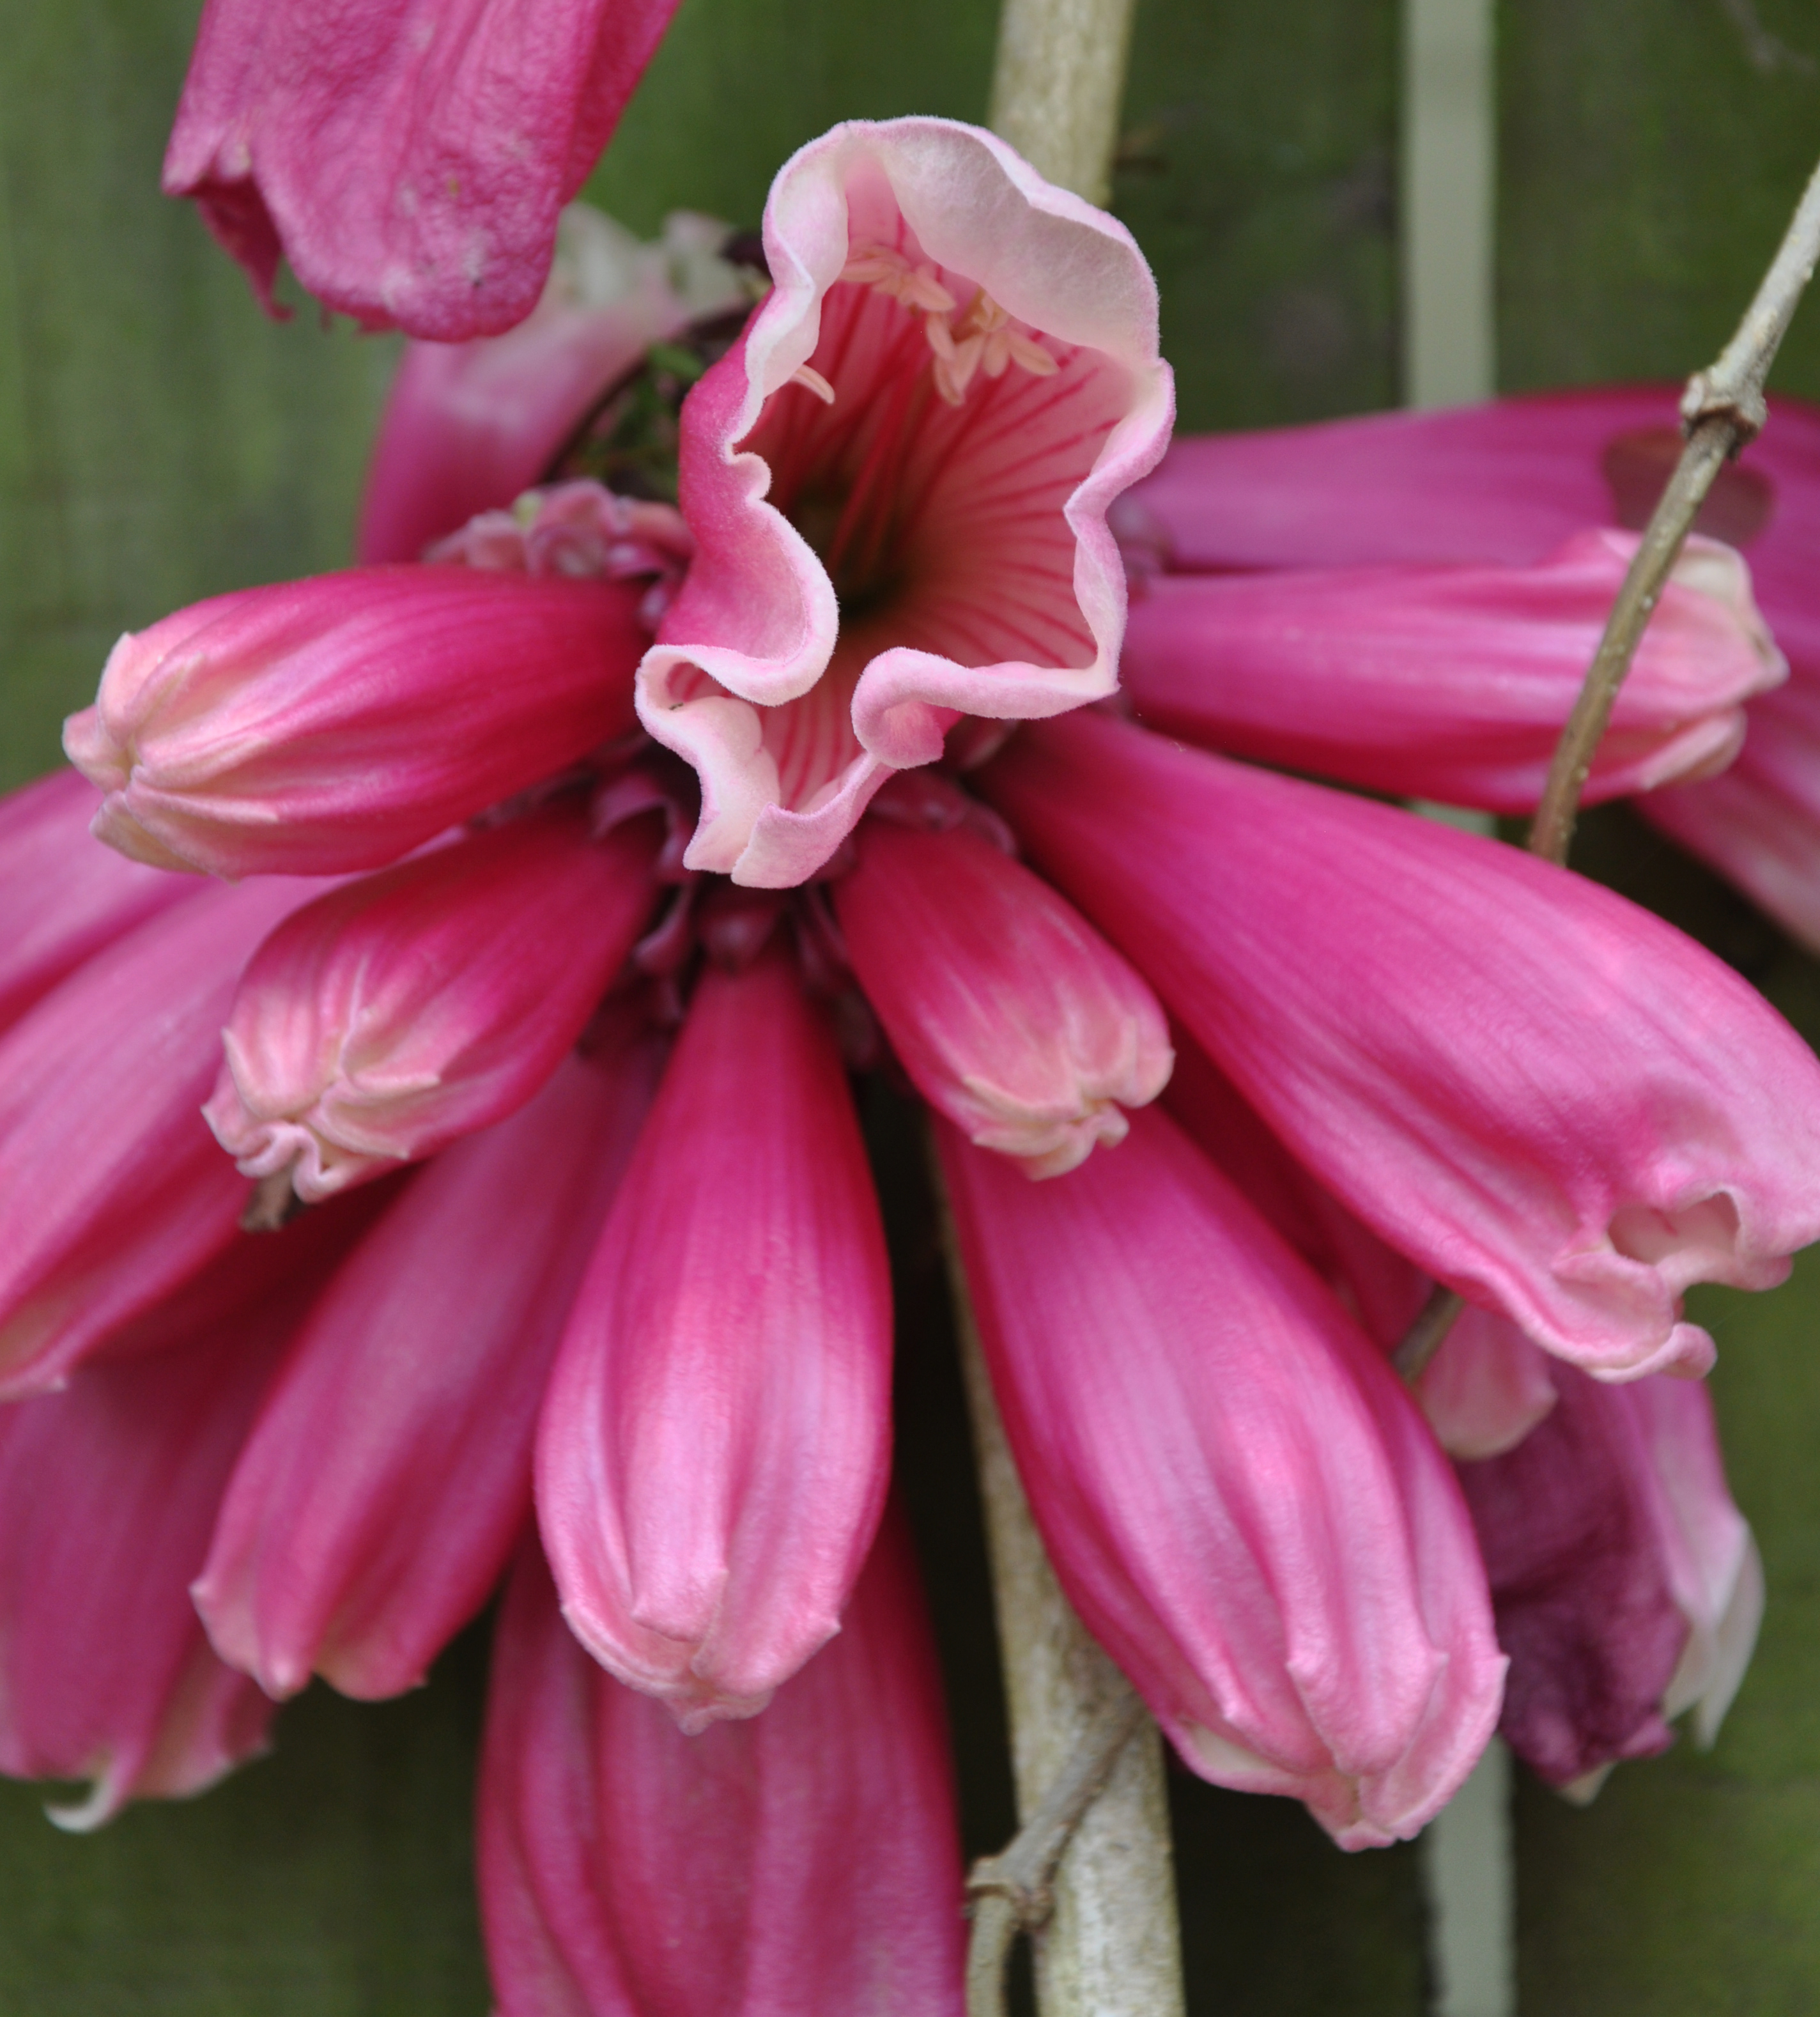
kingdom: Plantae
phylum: Tracheophyta
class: Magnoliopsida
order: Lamiales
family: Bignoniaceae
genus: Tecomanthe
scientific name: Tecomanthe dendrophila
